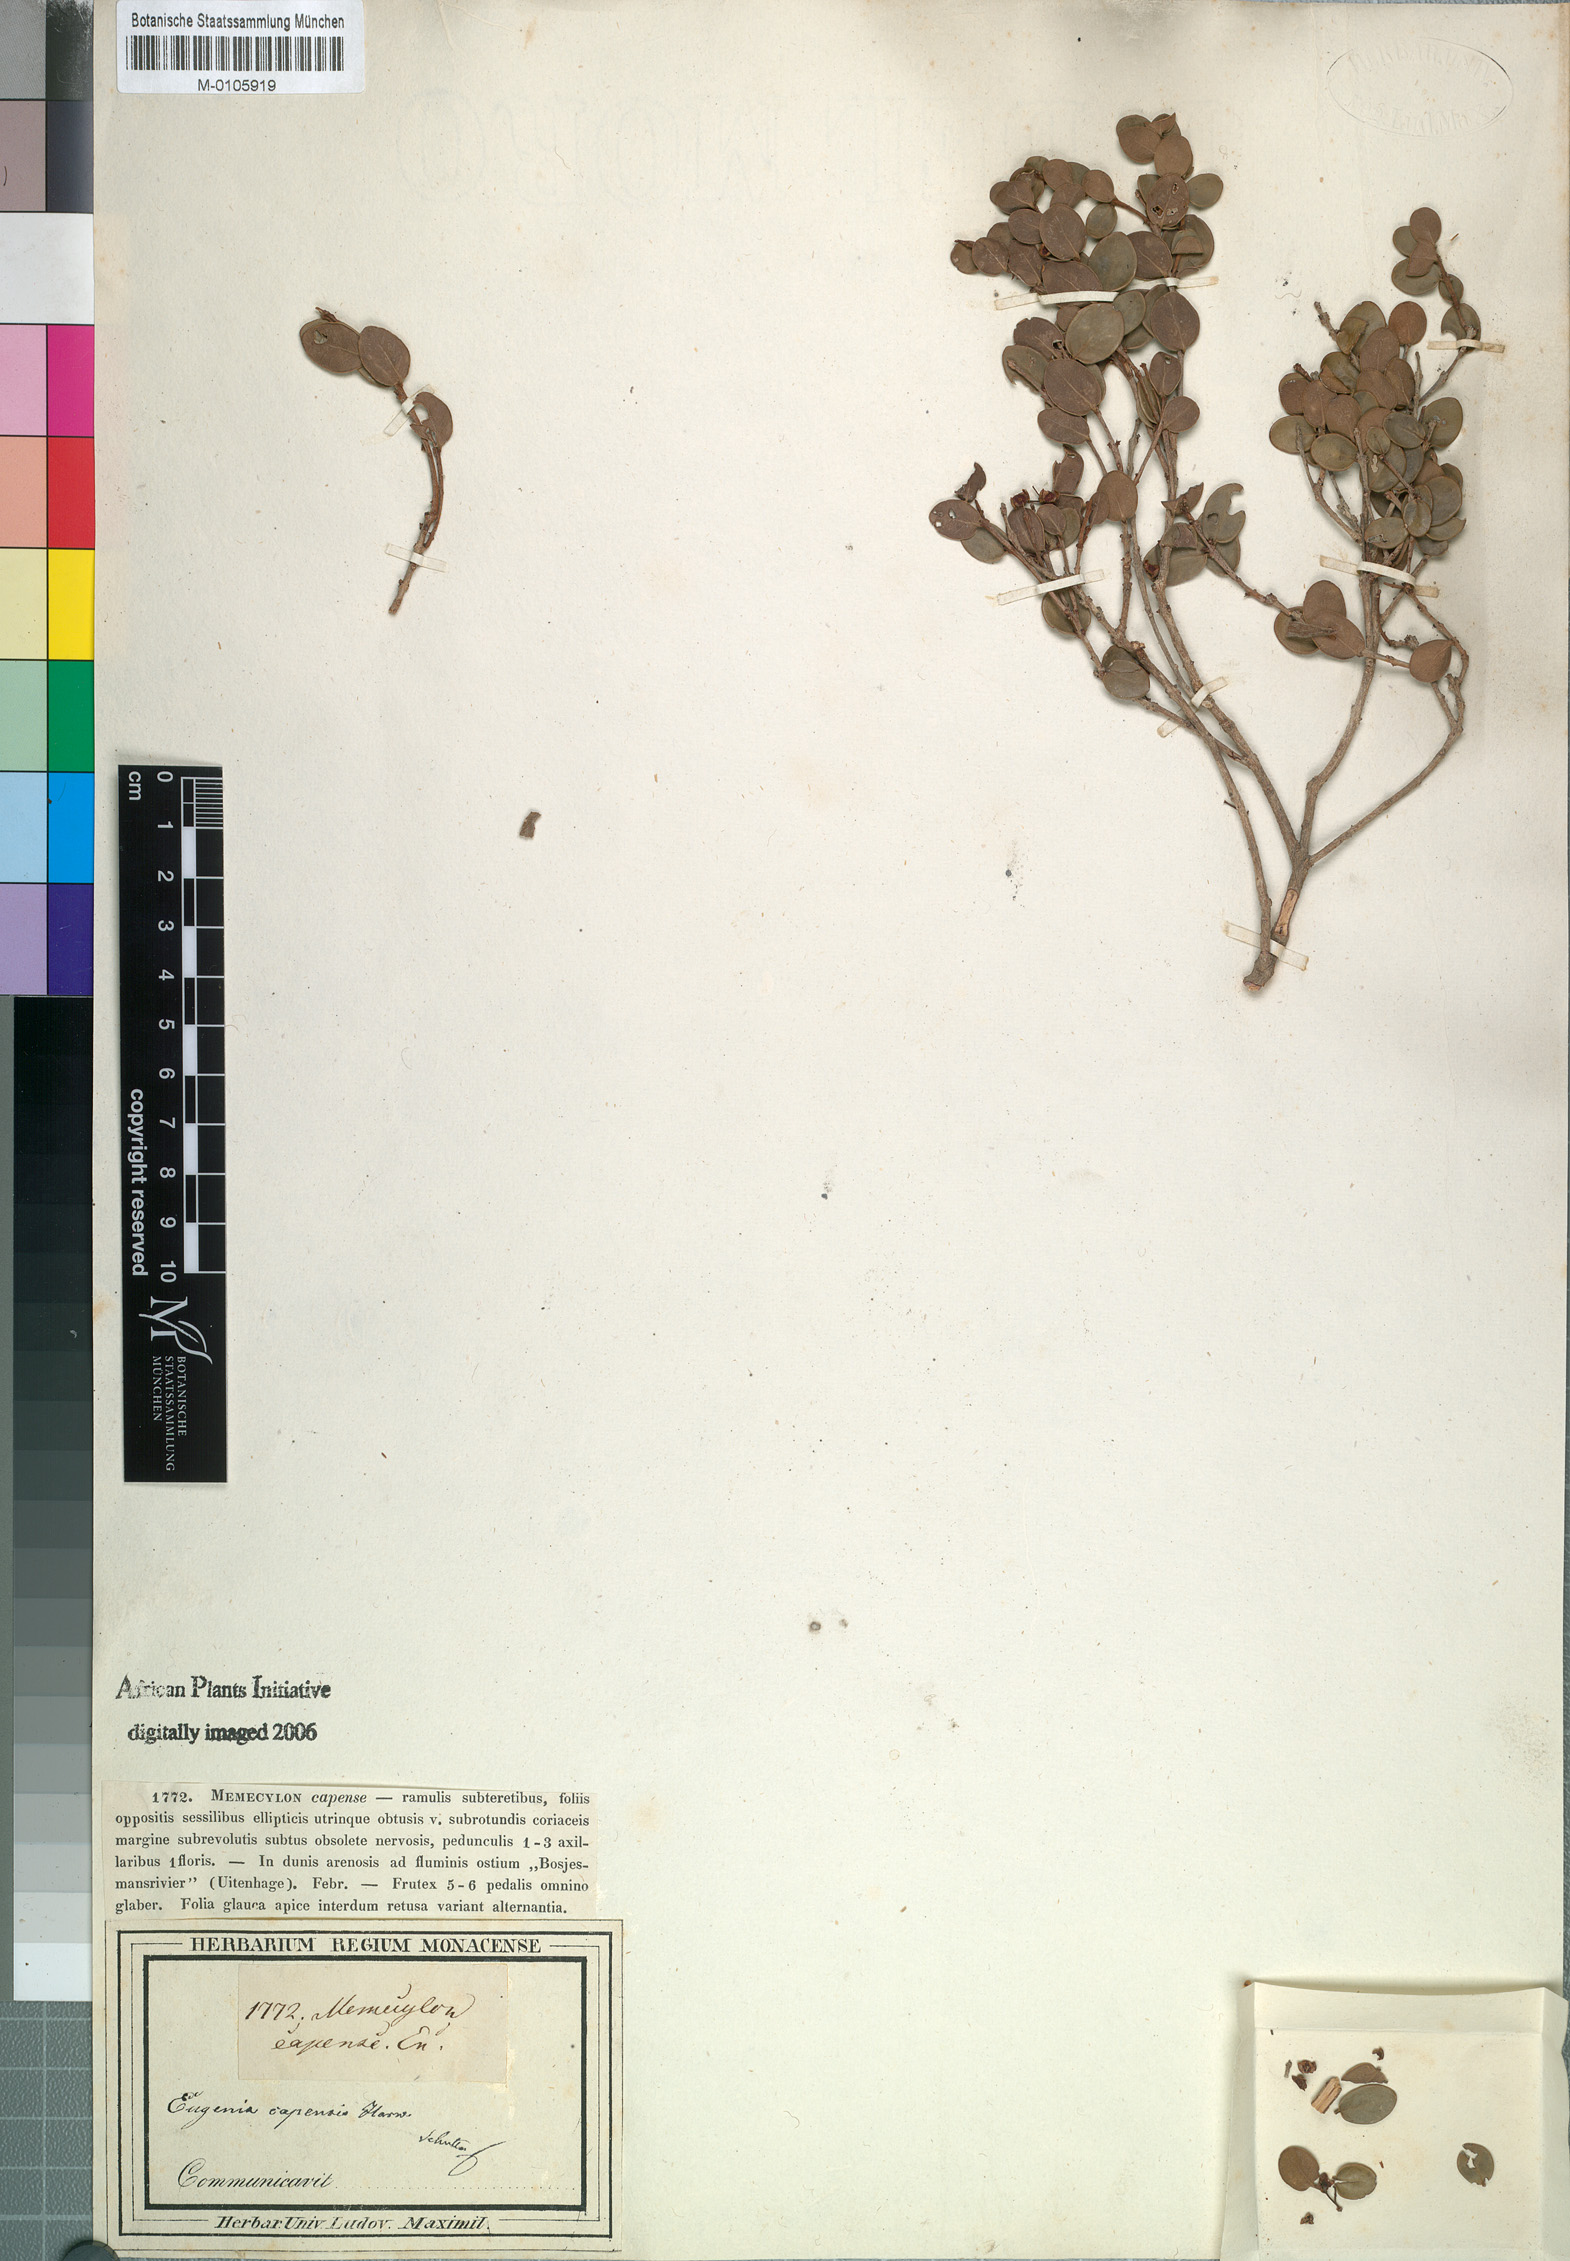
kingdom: Plantae
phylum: Tracheophyta
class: Magnoliopsida
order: Myrtales
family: Myrtaceae
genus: Eugenia
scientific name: Eugenia capensis
